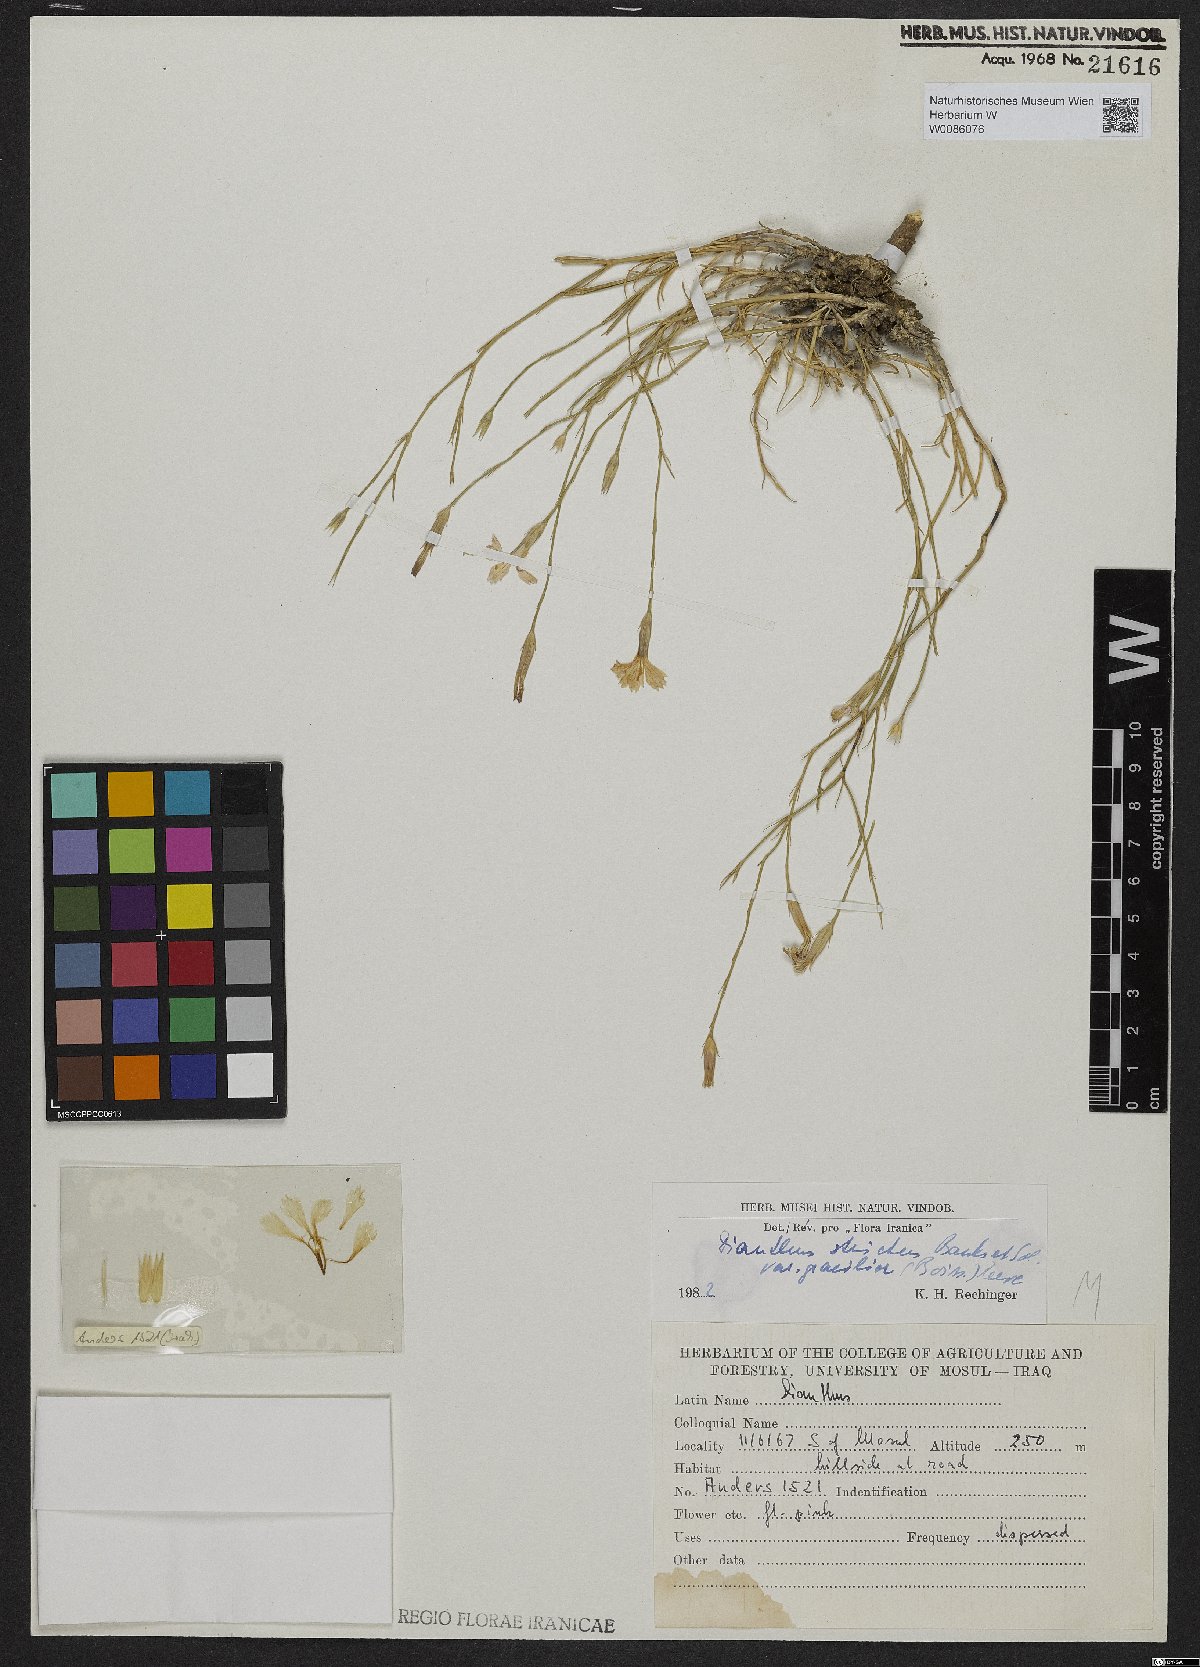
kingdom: Plantae
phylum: Tracheophyta
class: Magnoliopsida
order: Caryophyllales
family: Caryophyllaceae
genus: Dianthus
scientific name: Dianthus strictus
